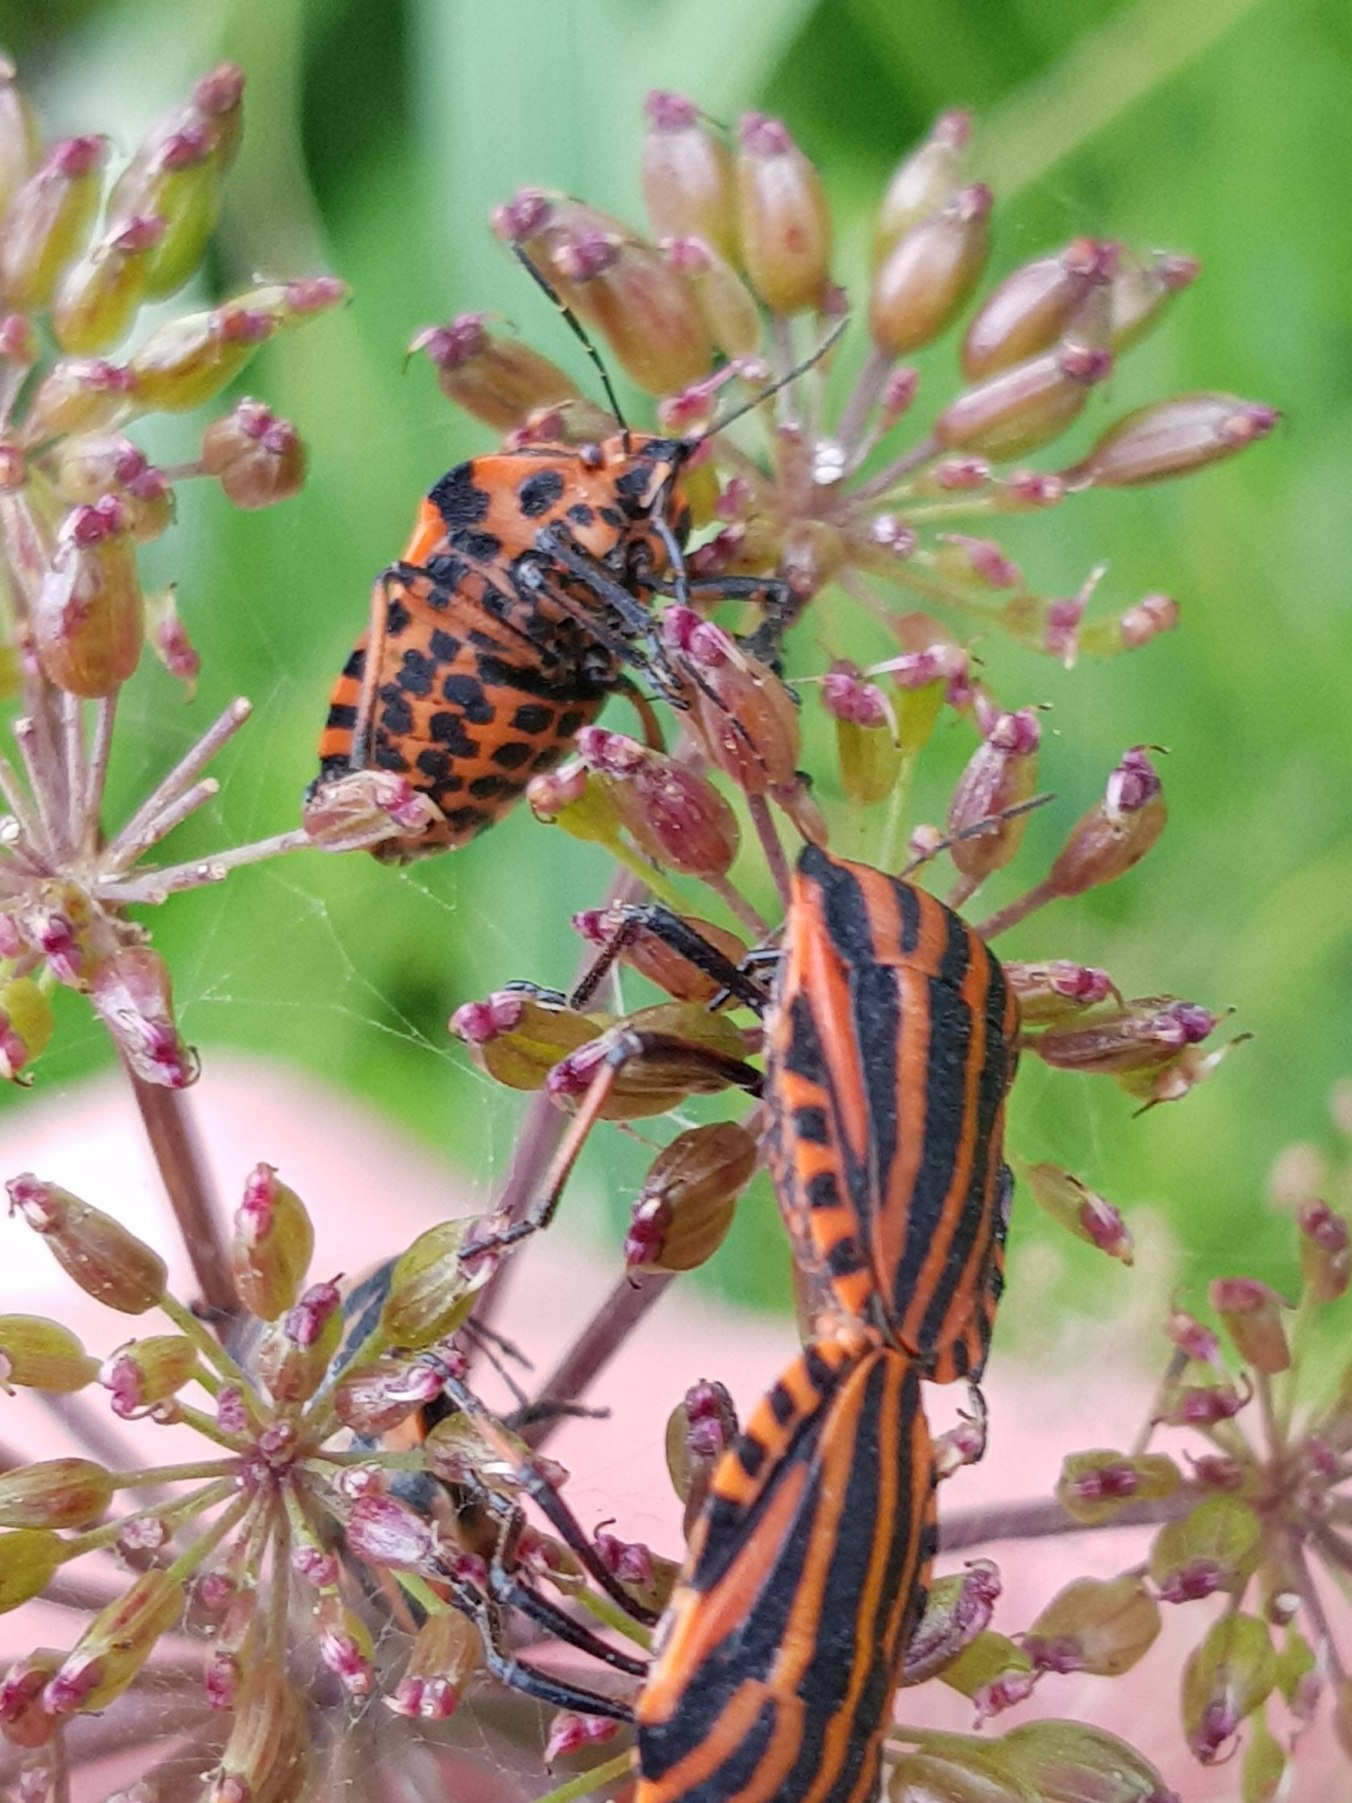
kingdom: Animalia
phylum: Arthropoda
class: Insecta
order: Hemiptera
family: Pentatomidae
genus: Graphosoma
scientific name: Graphosoma italicum
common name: Stribetæge
